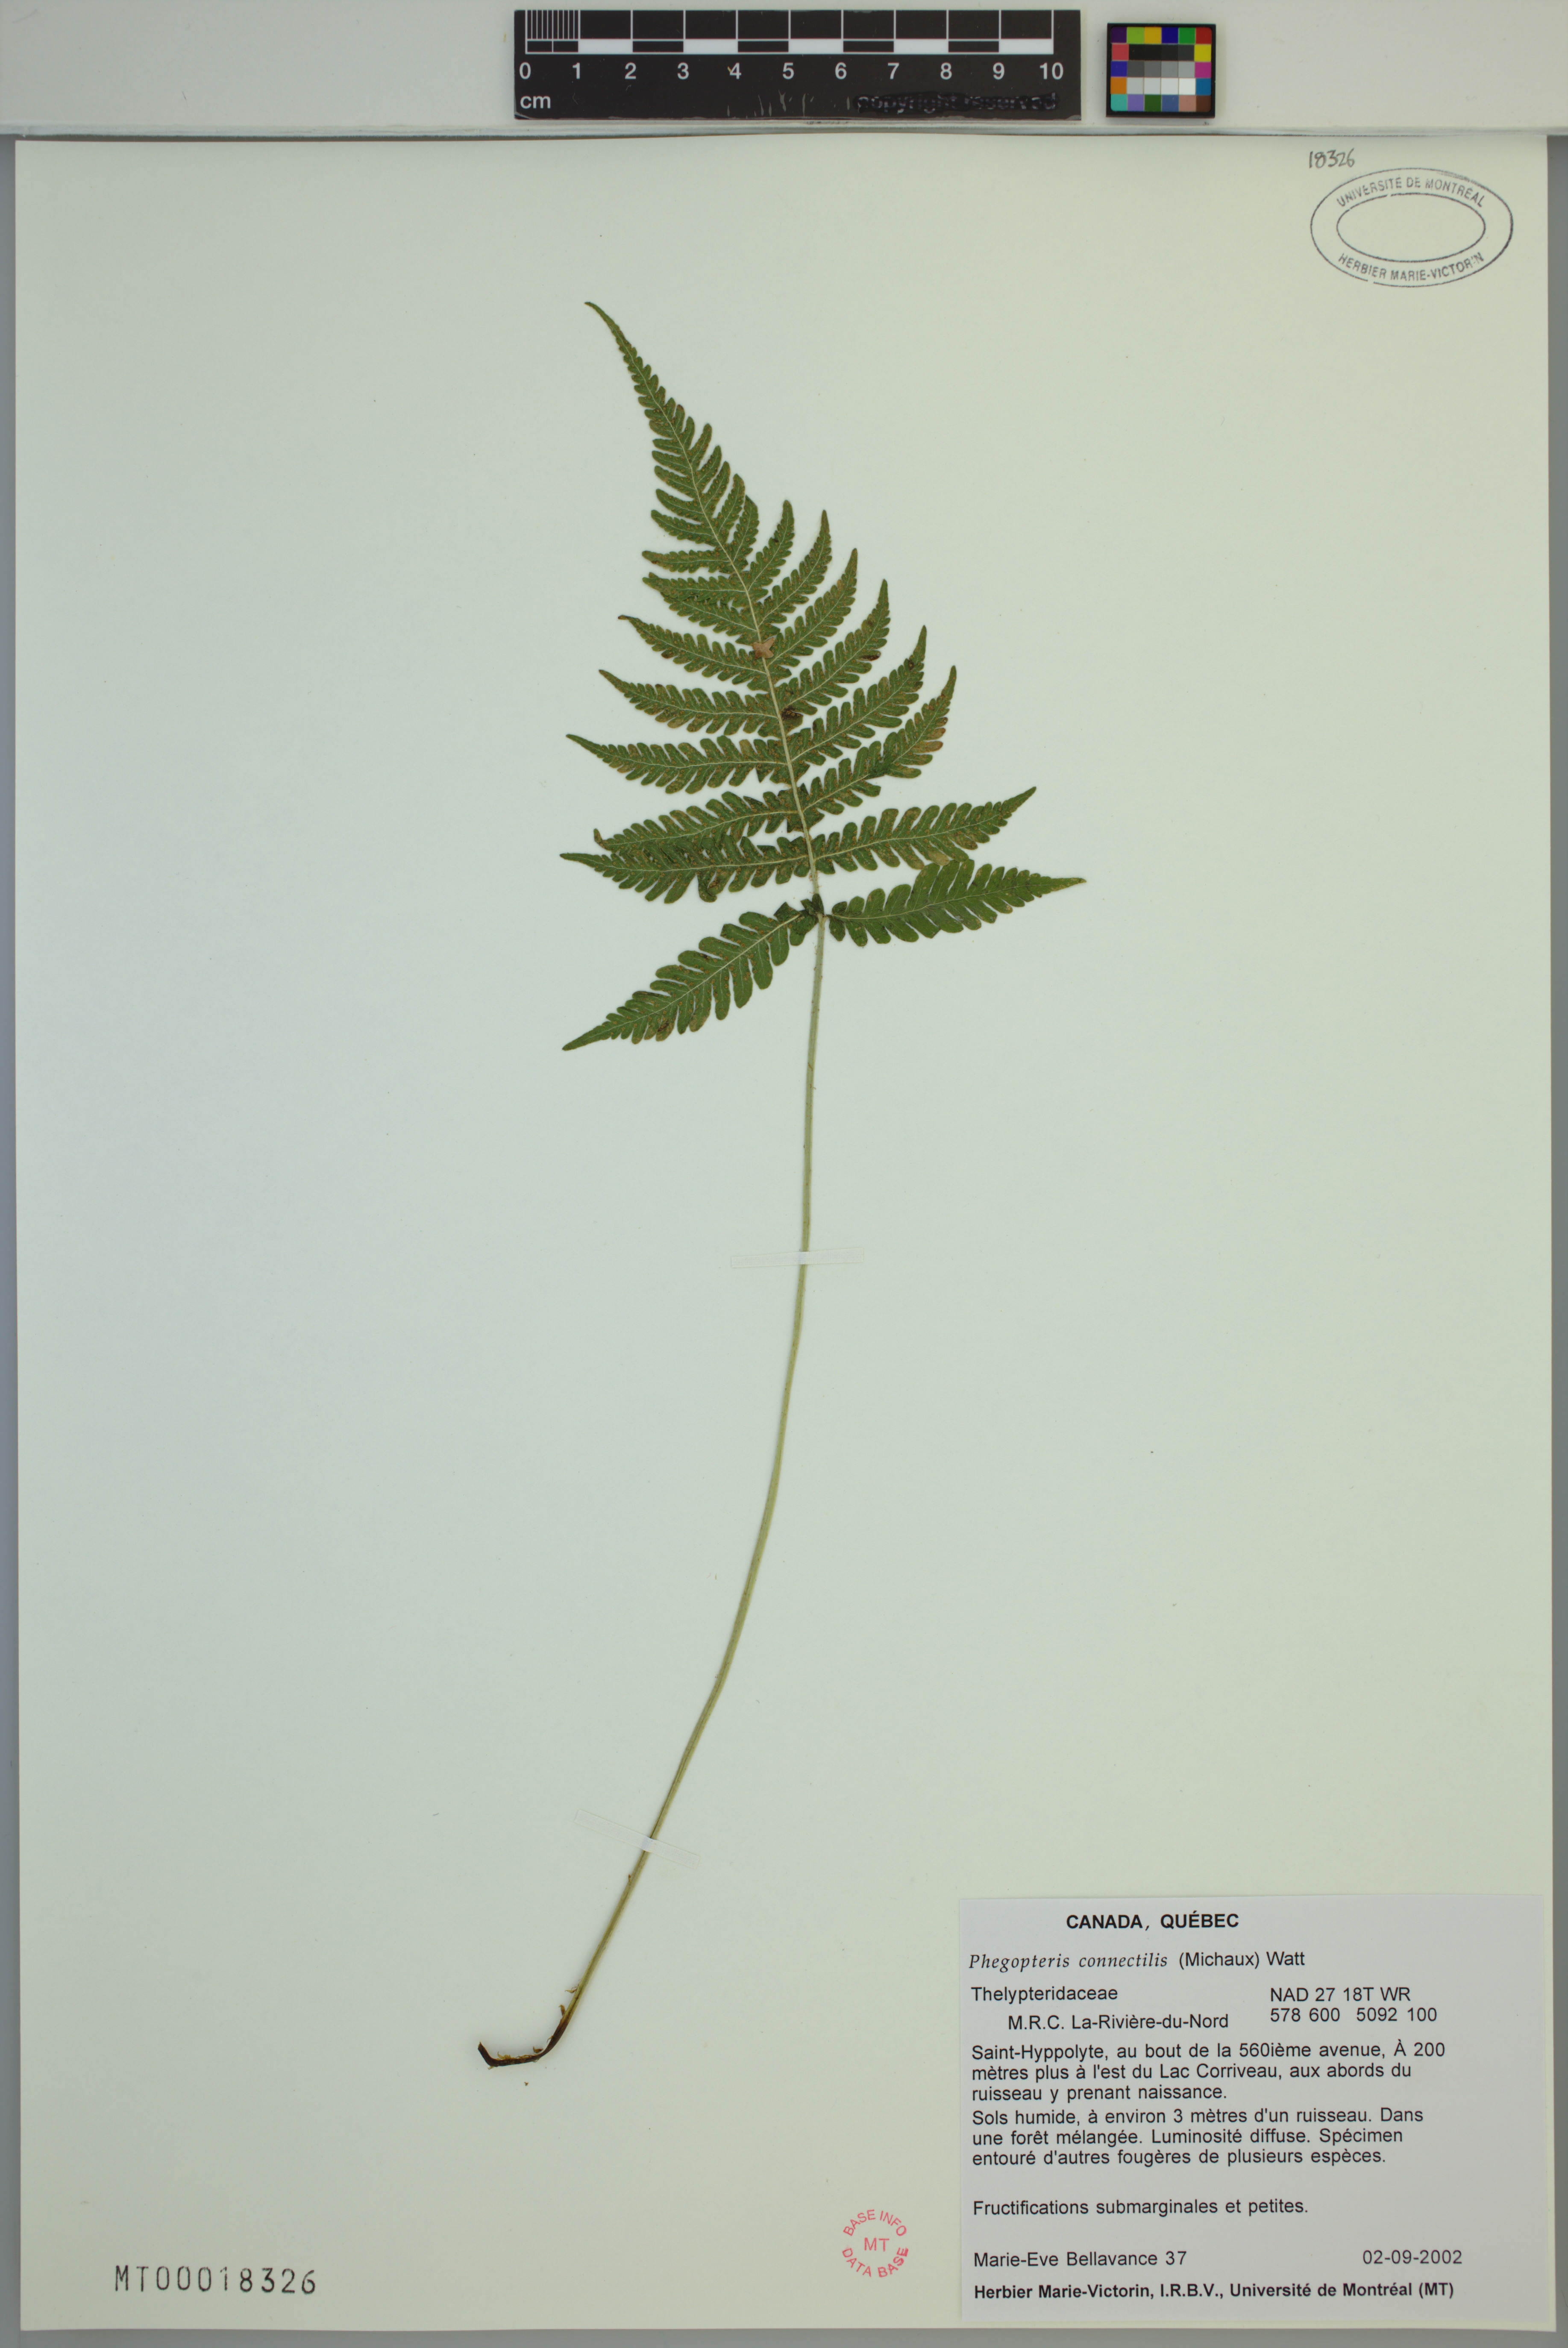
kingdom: Plantae
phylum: Tracheophyta
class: Polypodiopsida
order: Polypodiales
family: Thelypteridaceae
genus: Phegopteris
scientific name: Phegopteris connectilis
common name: Beech fern
